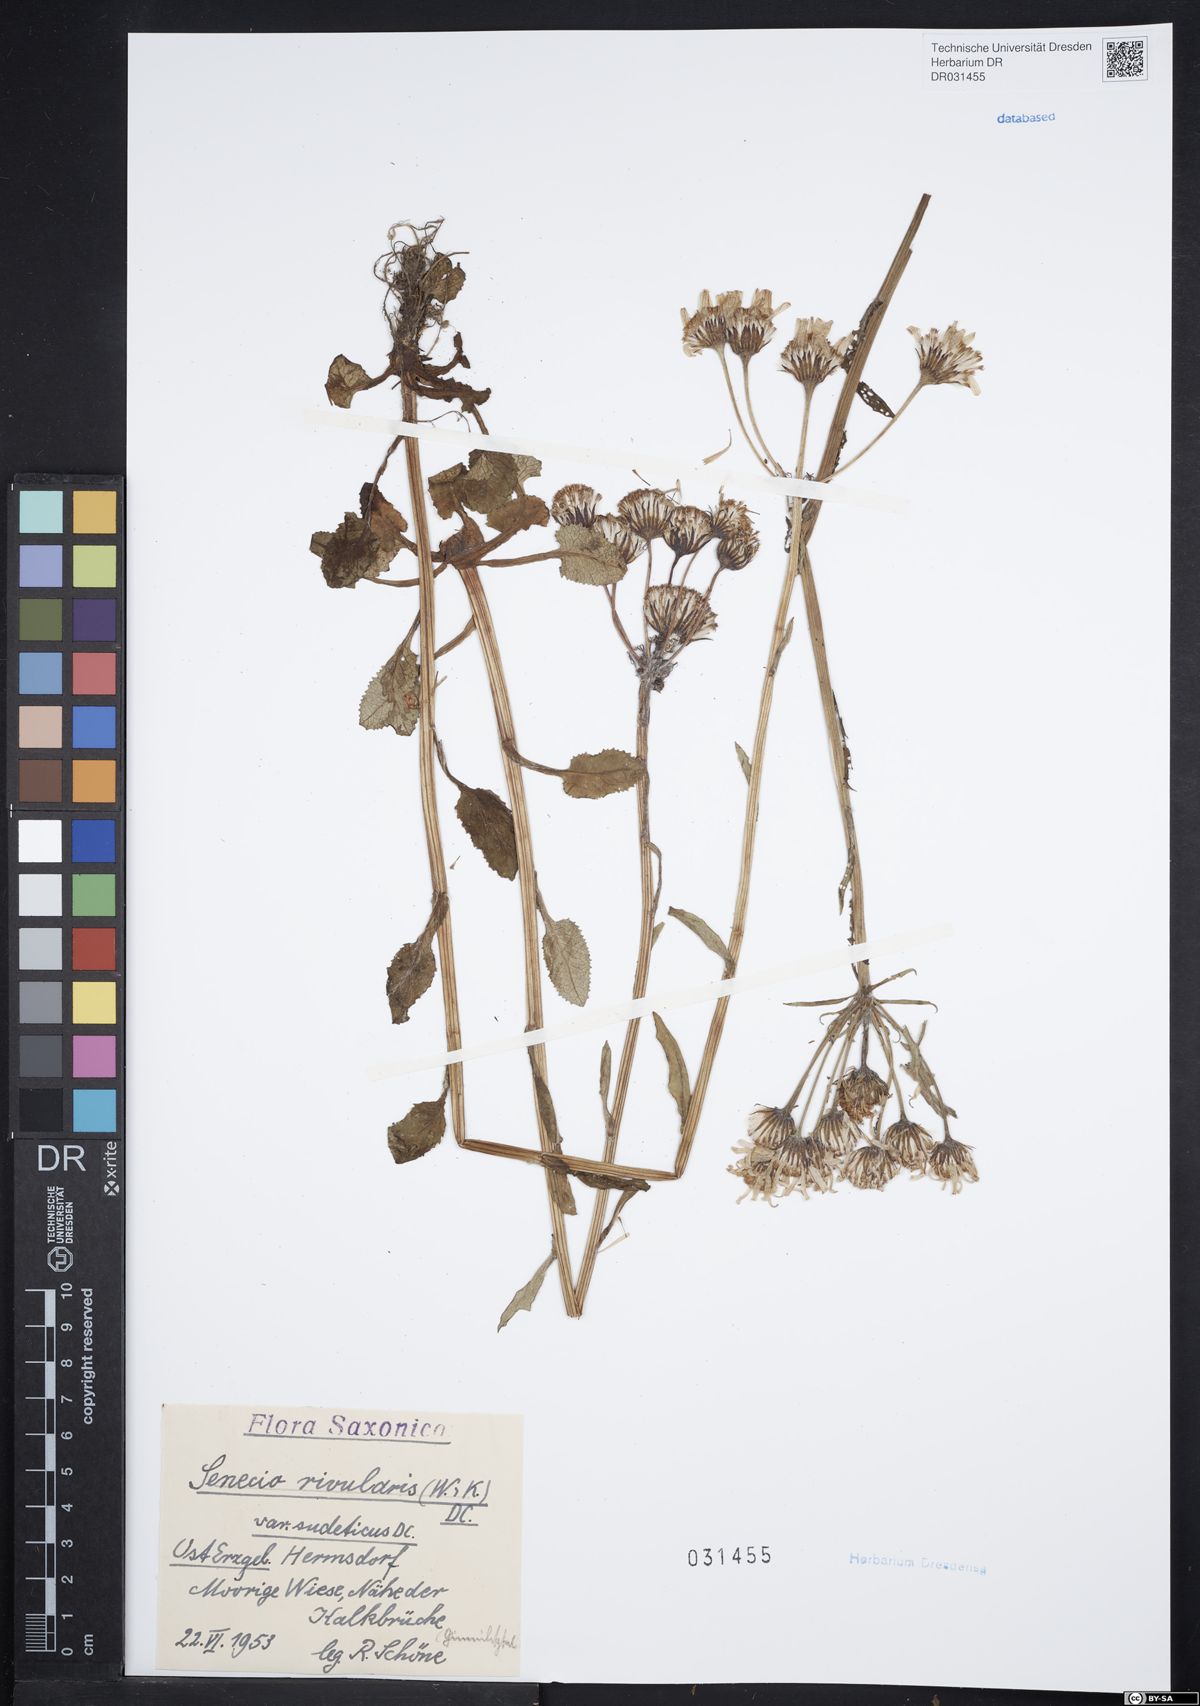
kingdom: Plantae
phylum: Tracheophyta
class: Magnoliopsida
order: Asterales
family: Asteraceae
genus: Tephroseris
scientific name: Tephroseris crispa
